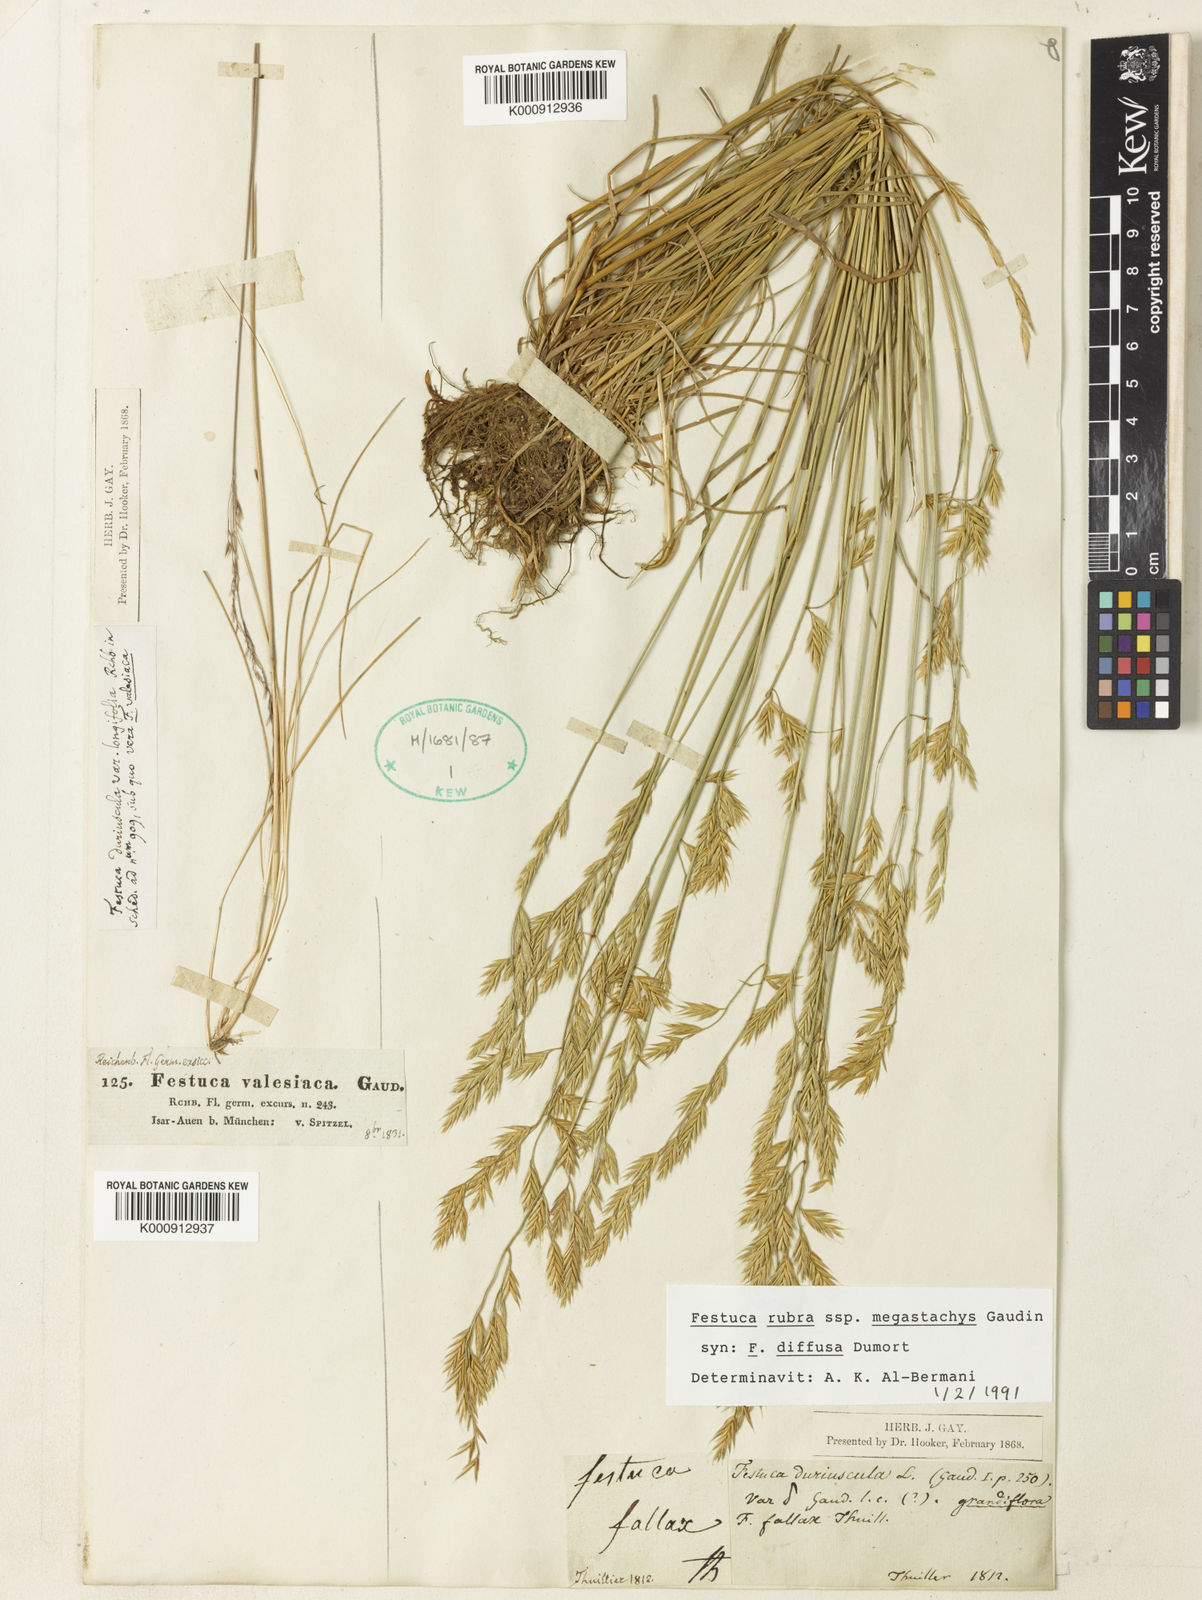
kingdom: Plantae
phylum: Tracheophyta
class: Liliopsida
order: Poales
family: Poaceae
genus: Festuca
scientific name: Festuca rubra
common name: Red fescue
